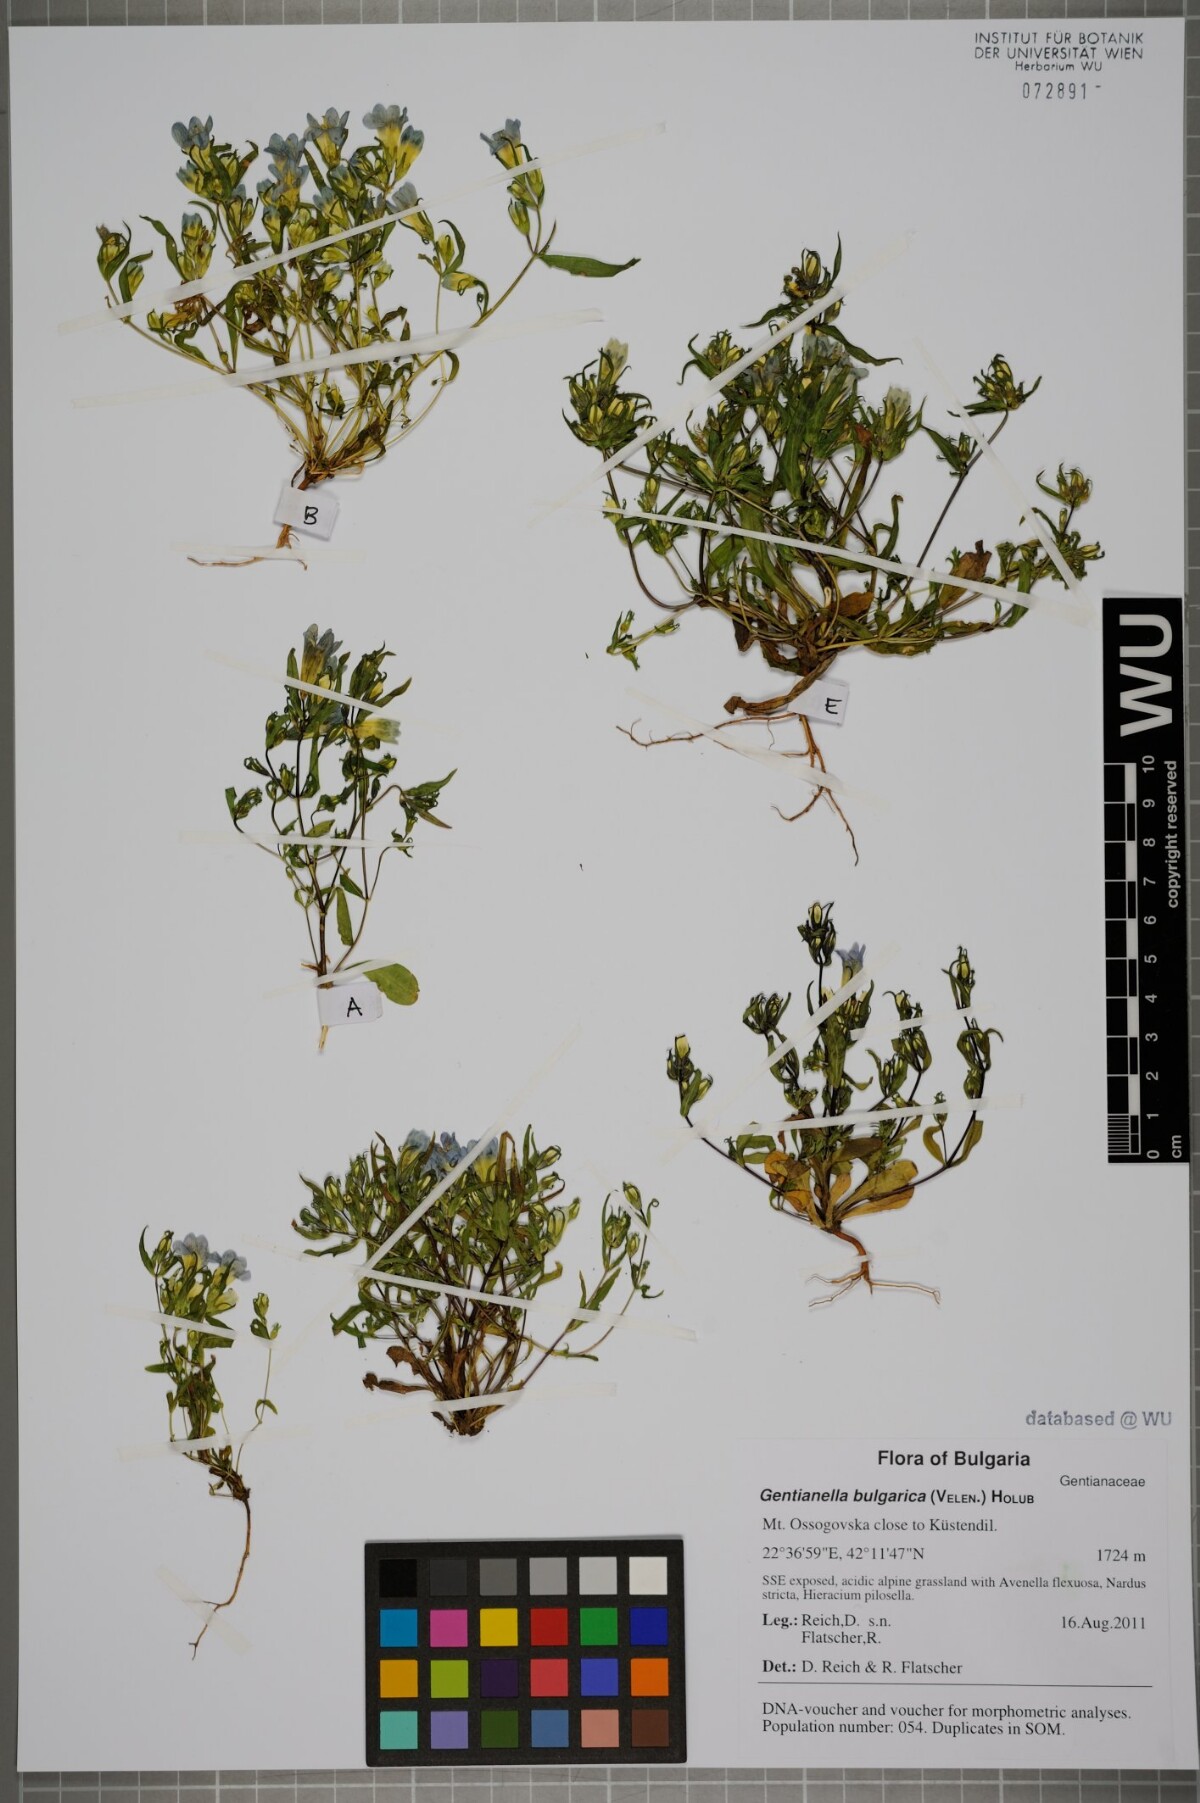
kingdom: Plantae
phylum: Tracheophyta
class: Magnoliopsida
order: Gentianales
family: Gentianaceae
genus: Gentianella
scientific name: Gentianella bulgarica
